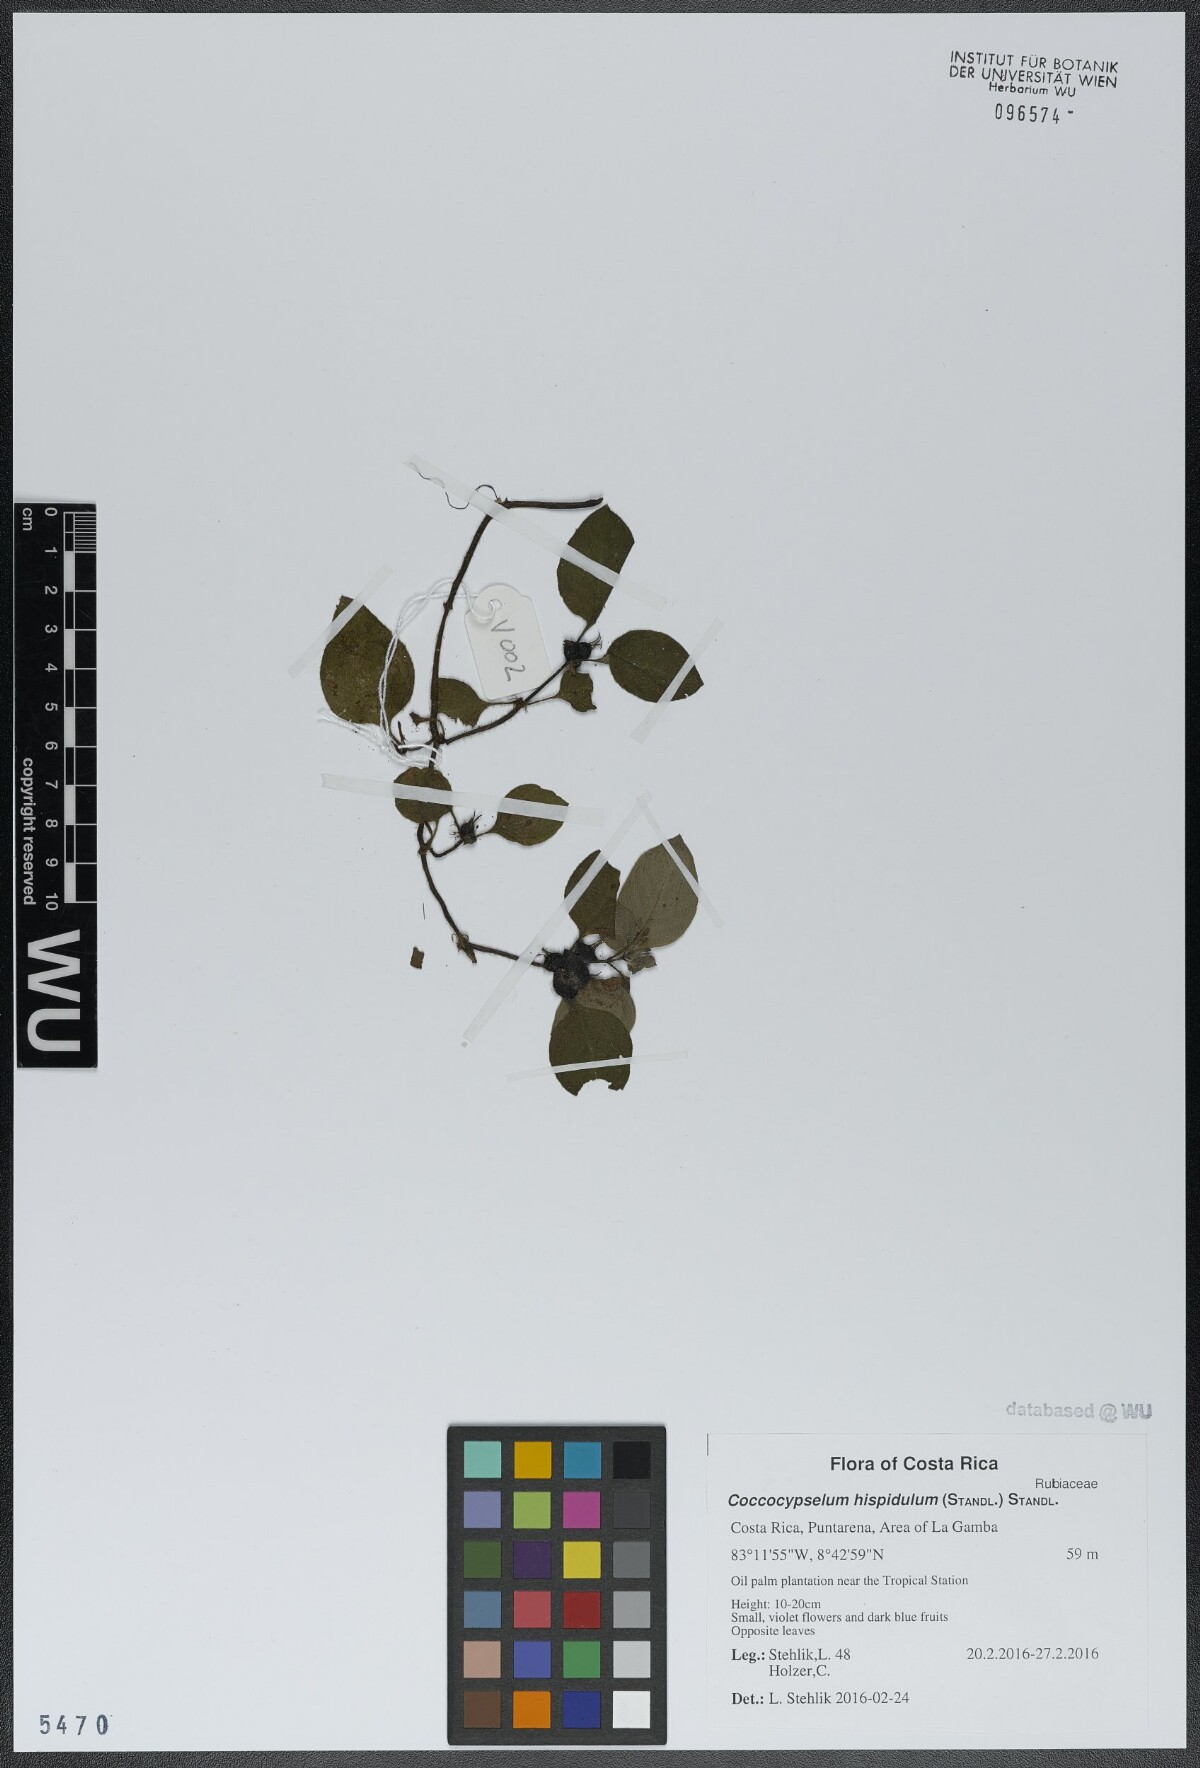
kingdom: Plantae
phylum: Tracheophyta
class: Magnoliopsida
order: Gentianales
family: Rubiaceae
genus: Coccocypselum
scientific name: Coccocypselum hispidulum
